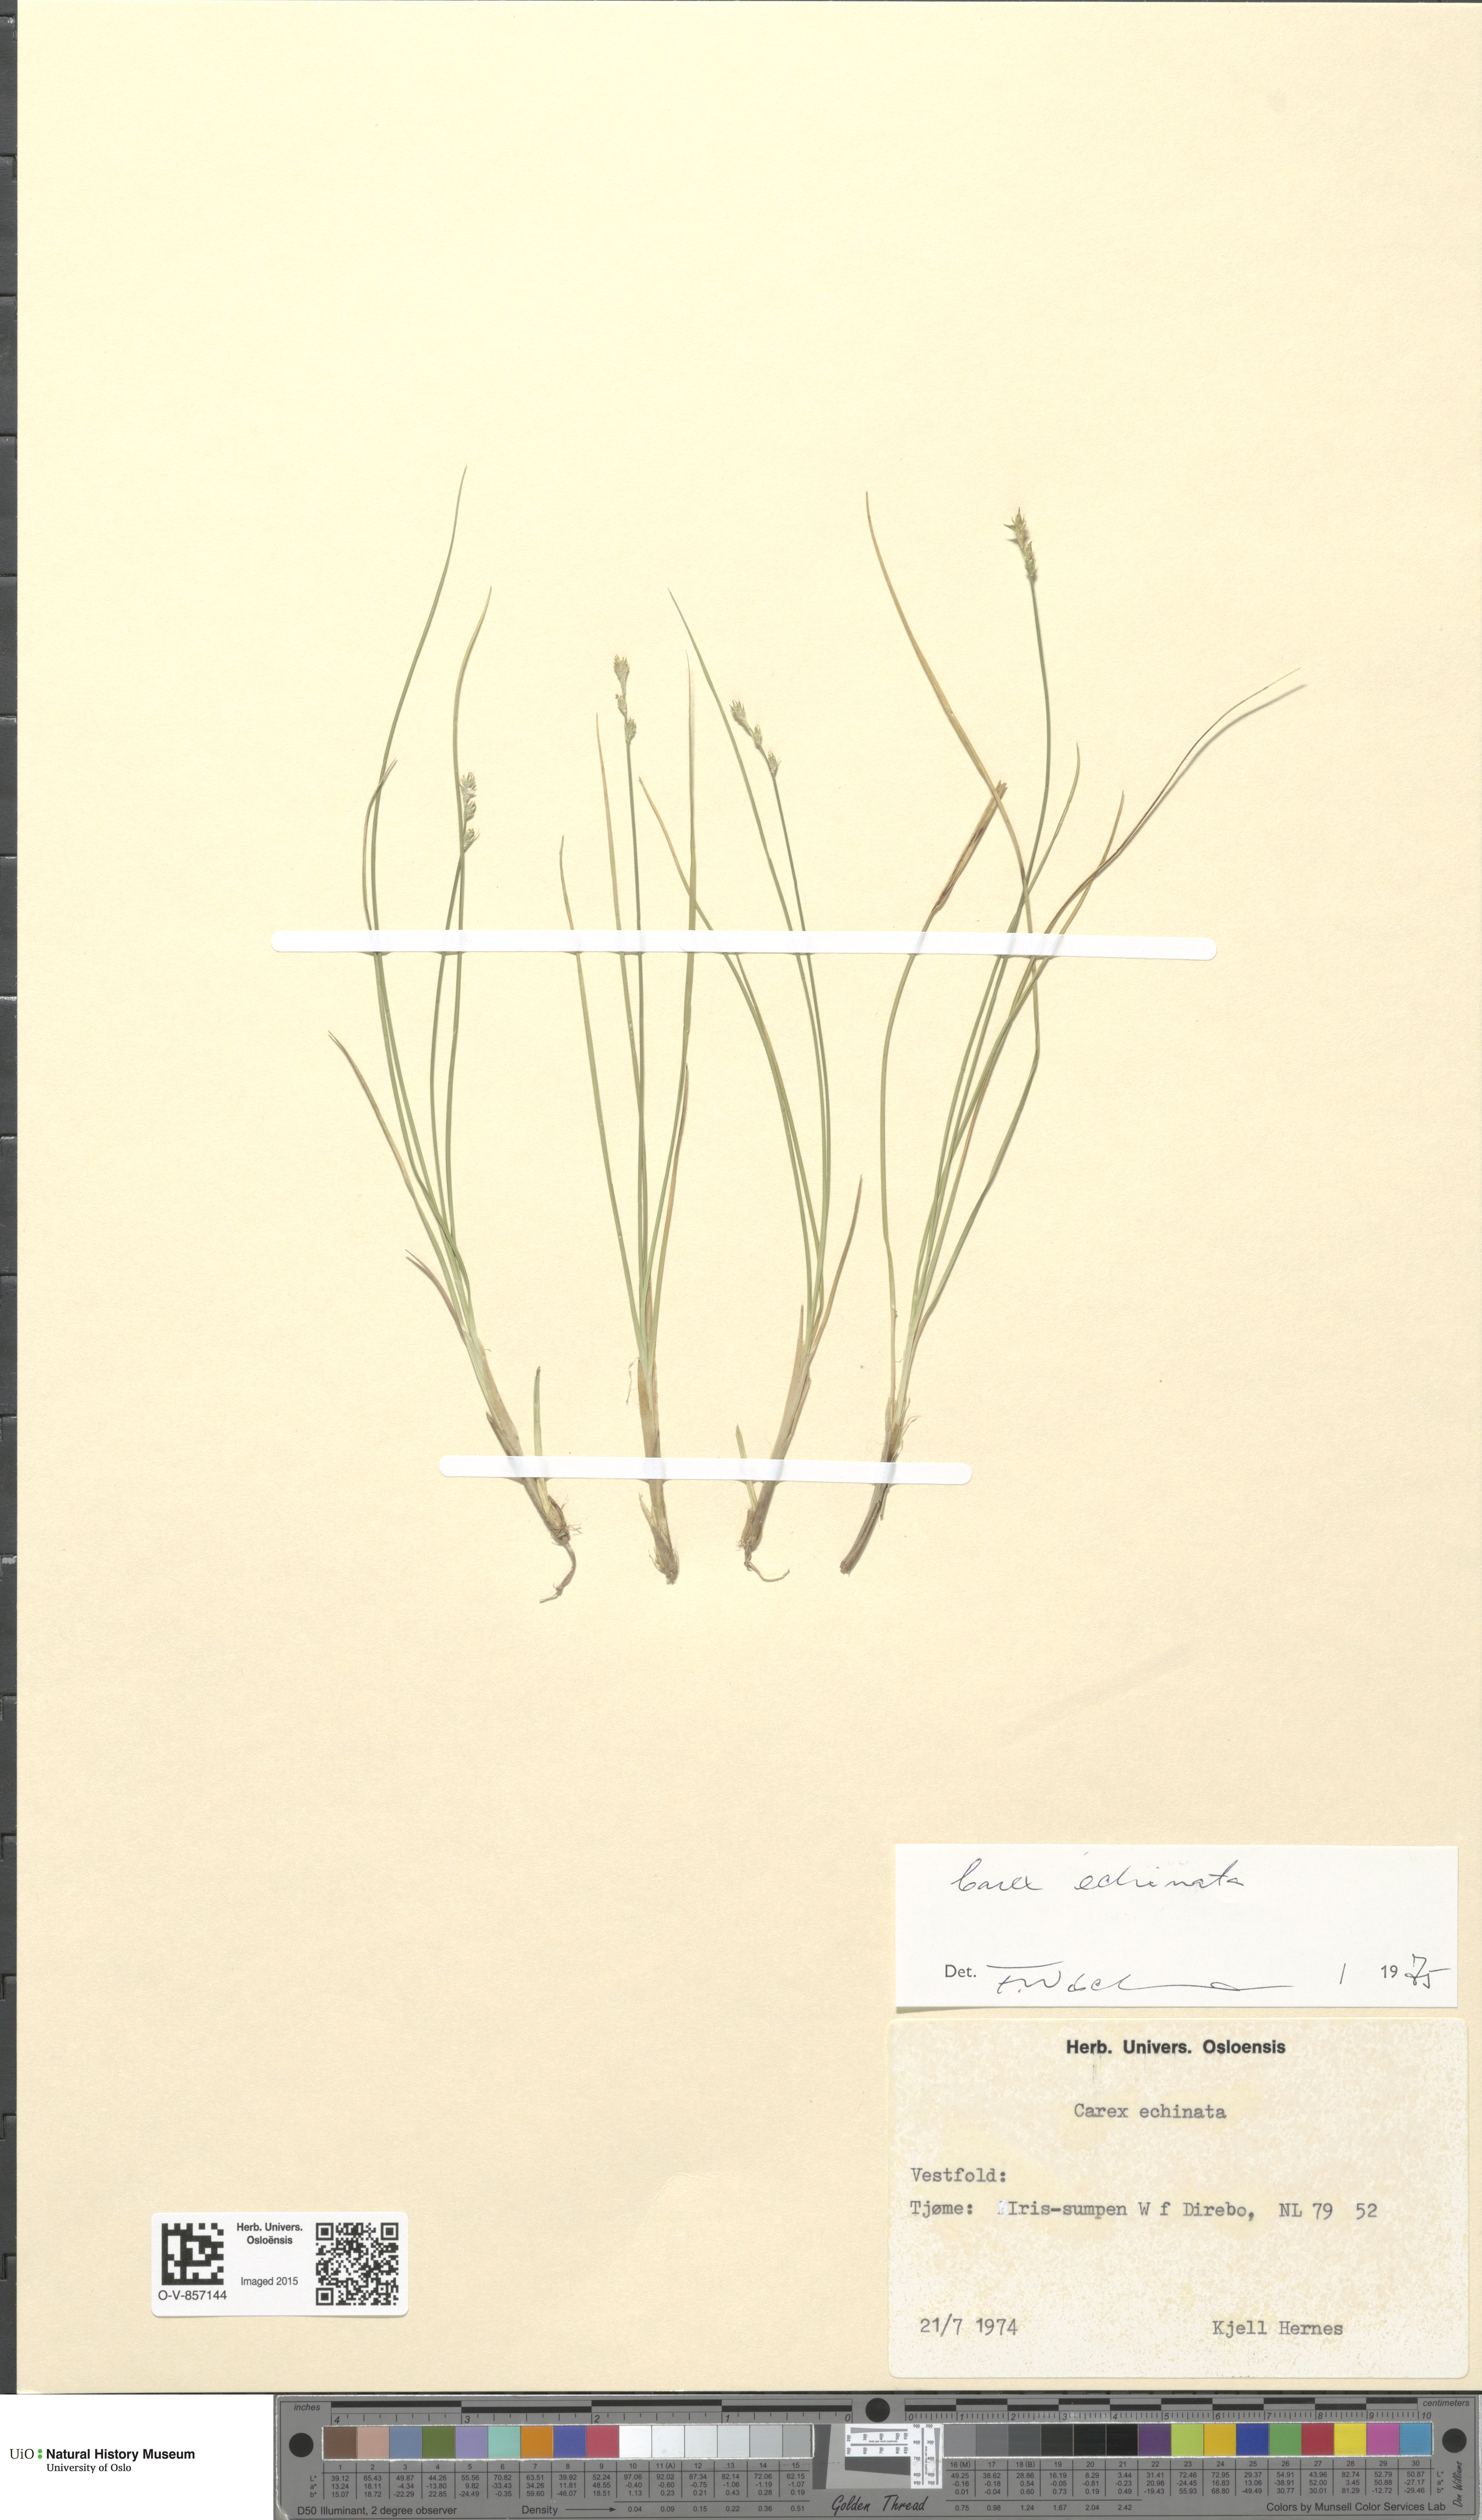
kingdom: Plantae
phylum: Tracheophyta
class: Liliopsida
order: Poales
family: Cyperaceae
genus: Carex
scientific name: Carex echinata
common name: Star sedge
